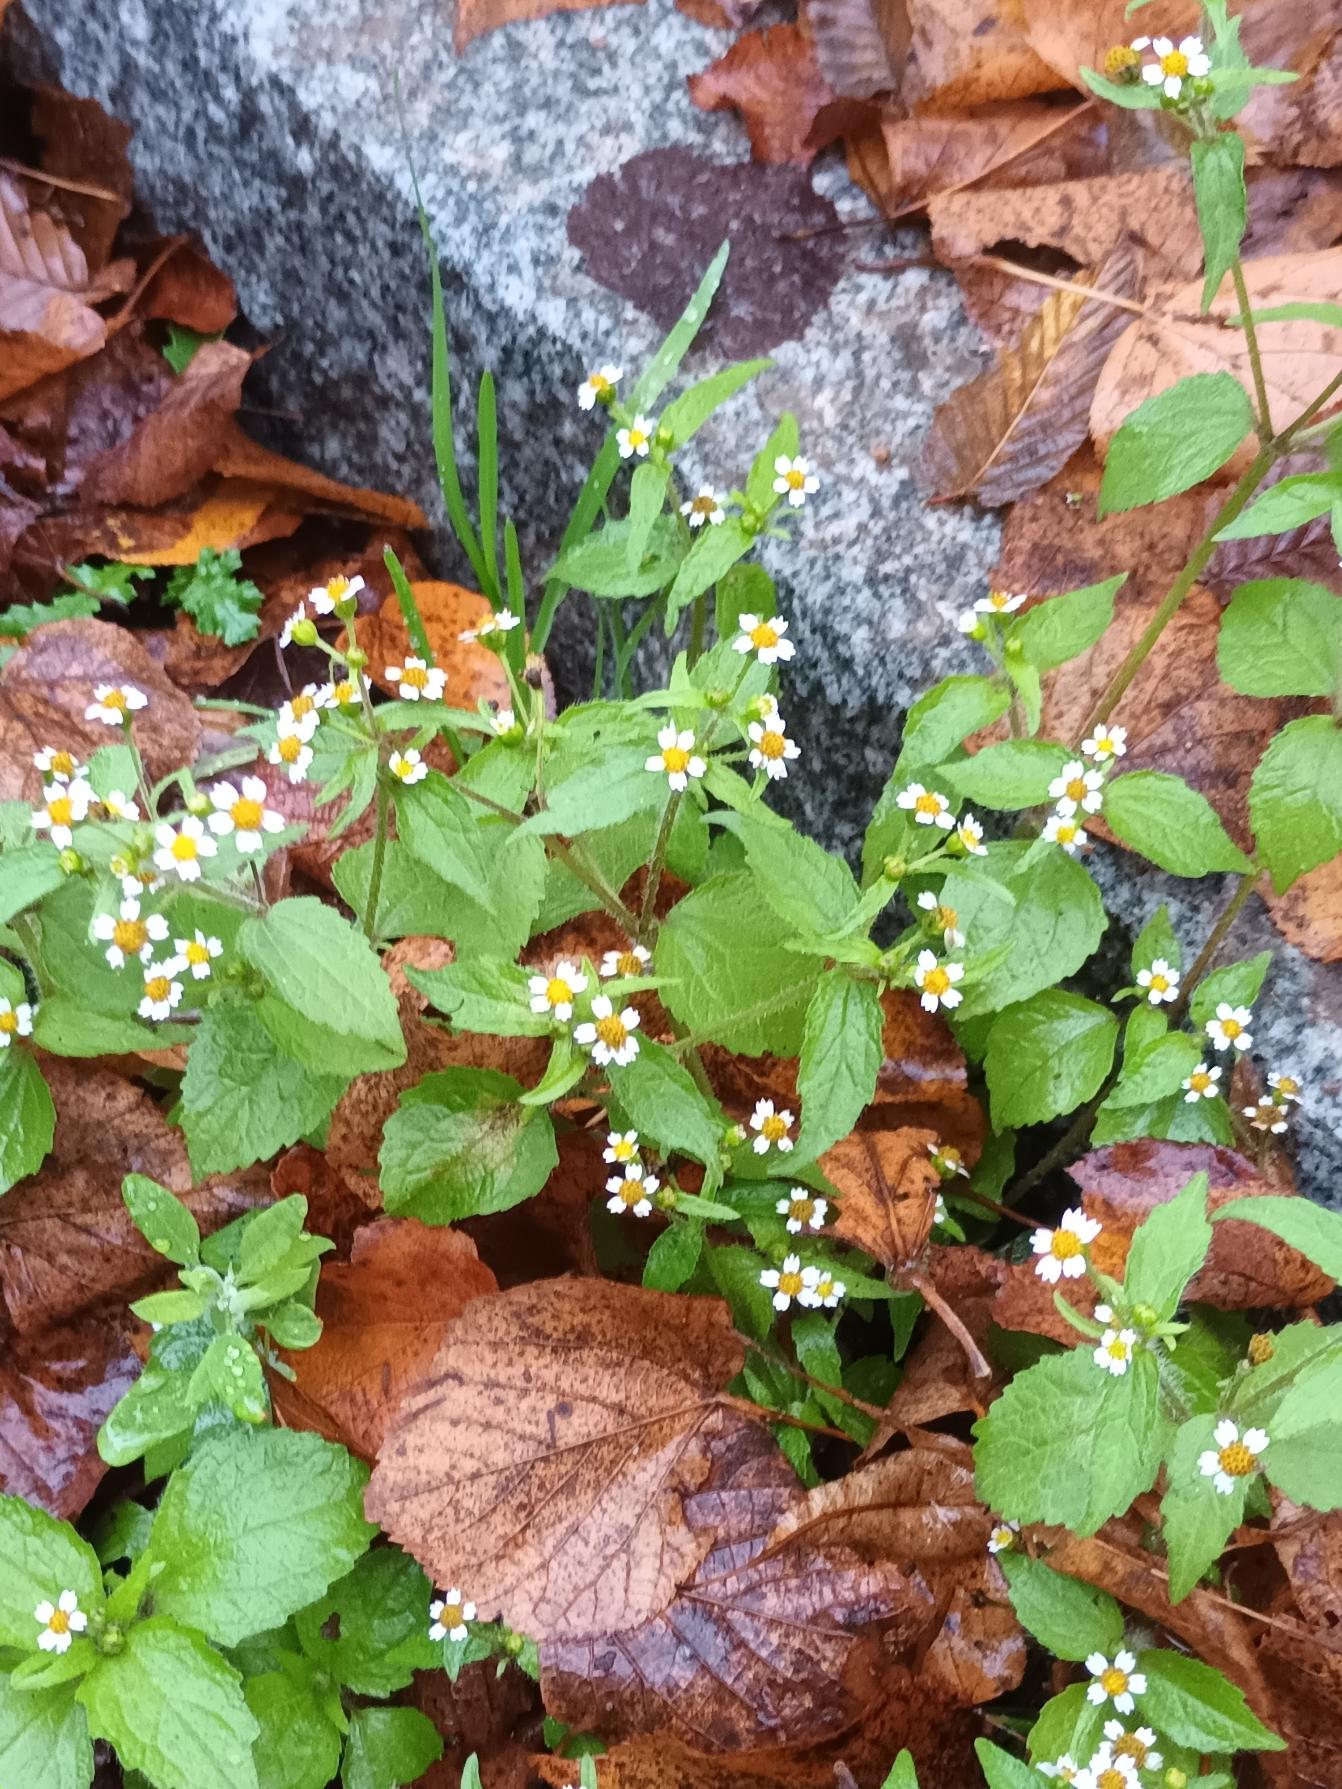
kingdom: Plantae
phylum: Tracheophyta
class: Magnoliopsida
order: Asterales
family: Asteraceae
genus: Galinsoga
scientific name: Galinsoga quadriradiata
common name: Kirtel-kortstråle
